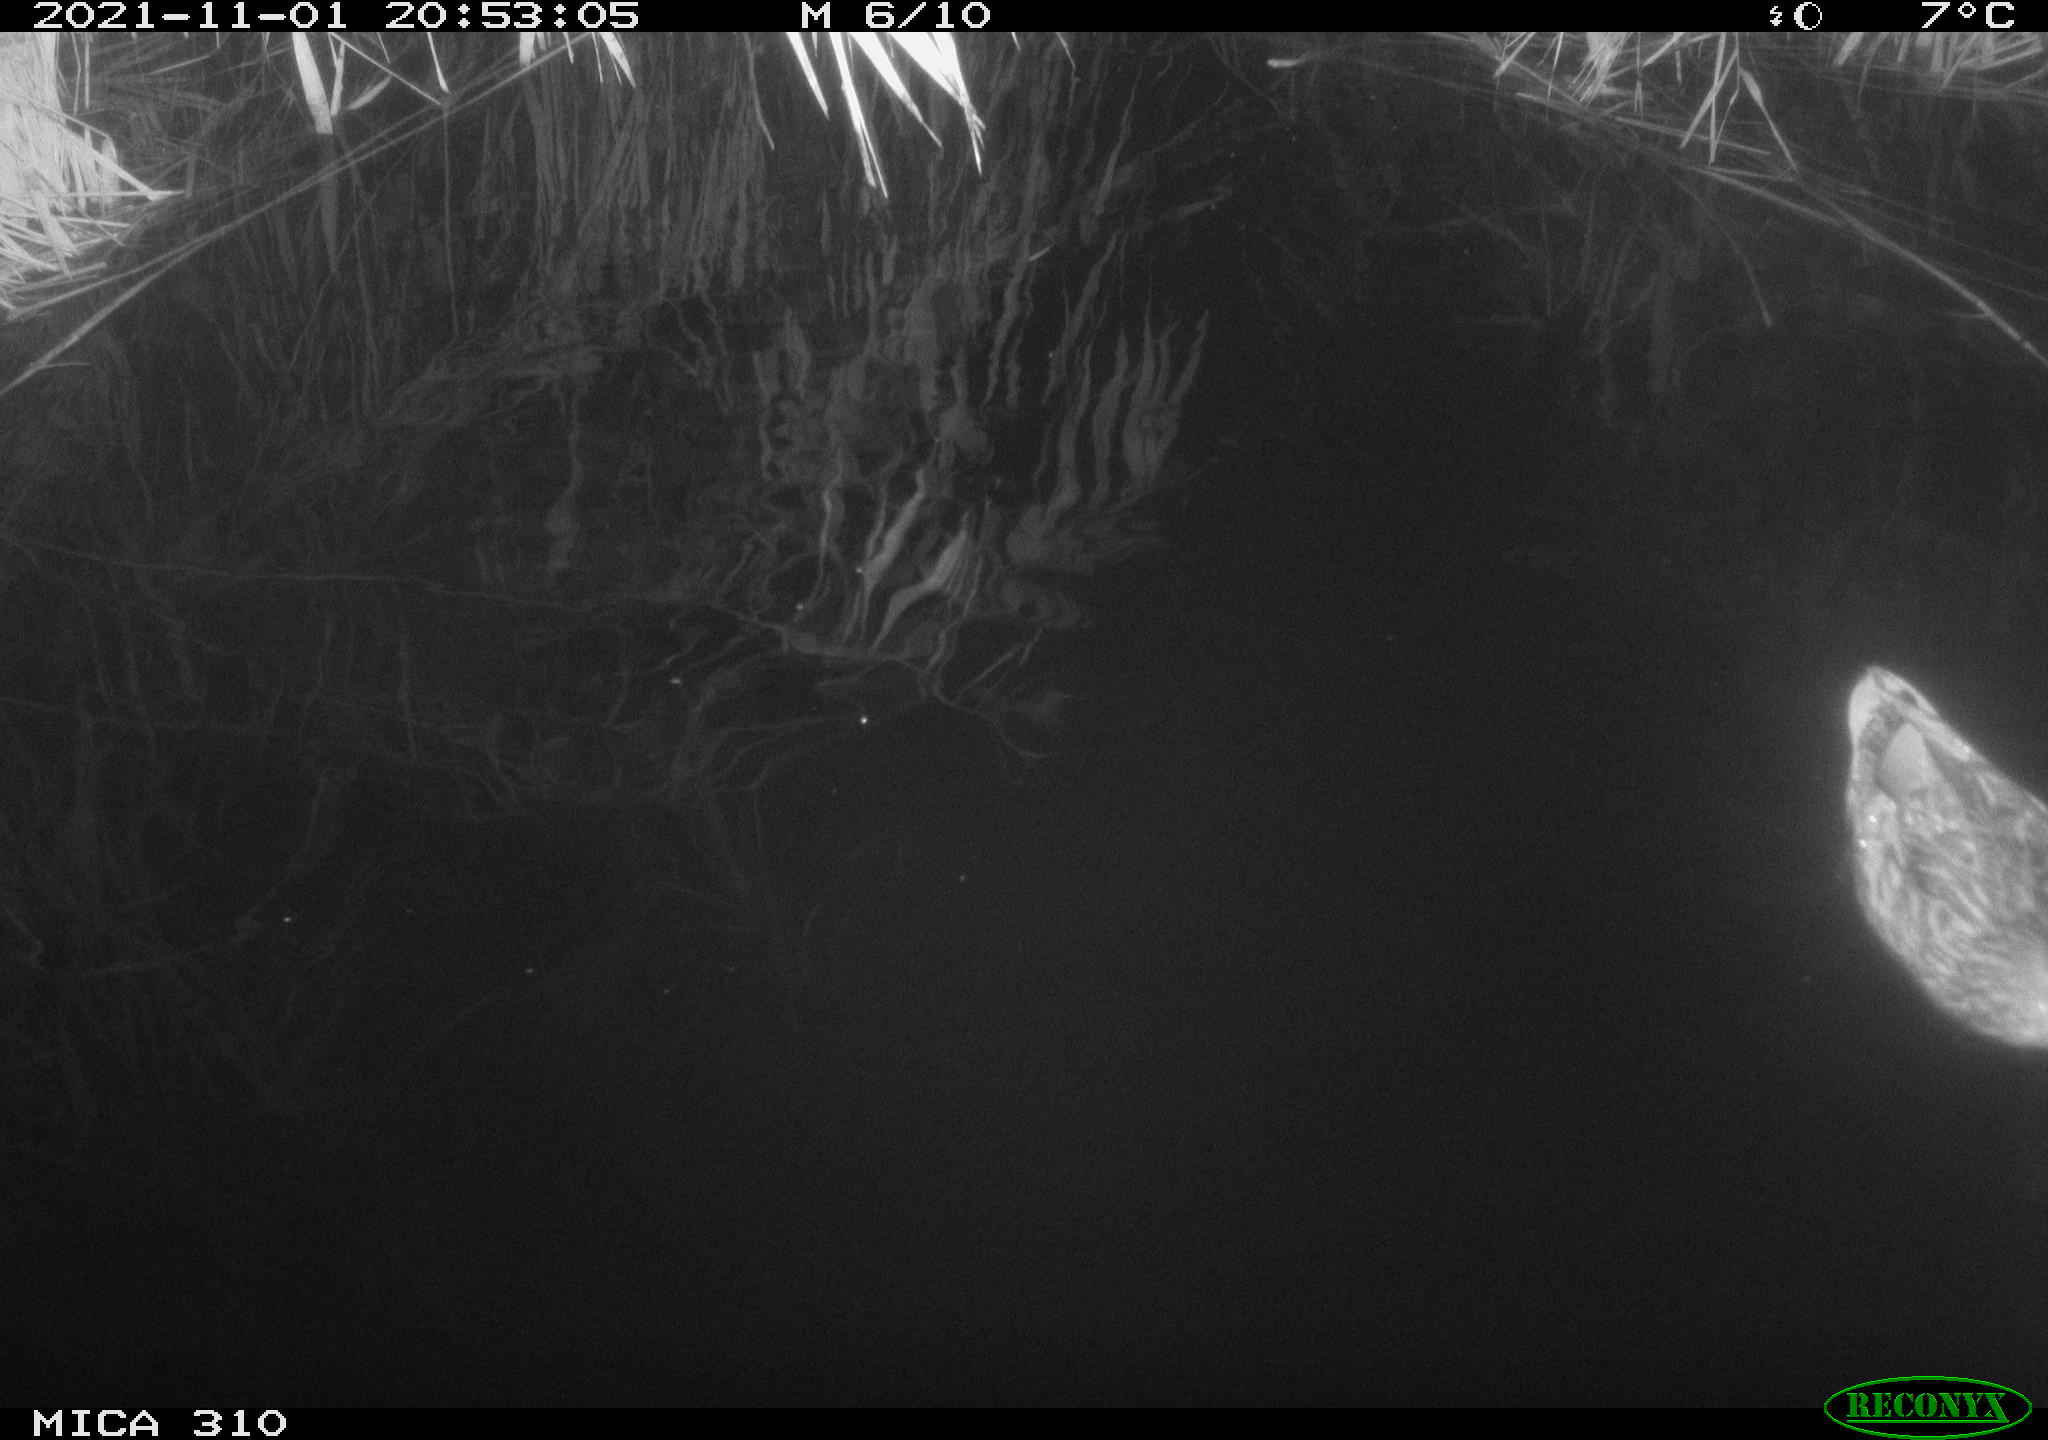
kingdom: Animalia
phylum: Chordata
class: Aves
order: Anseriformes
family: Anatidae
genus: Anas
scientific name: Anas platyrhynchos
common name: Mallard
